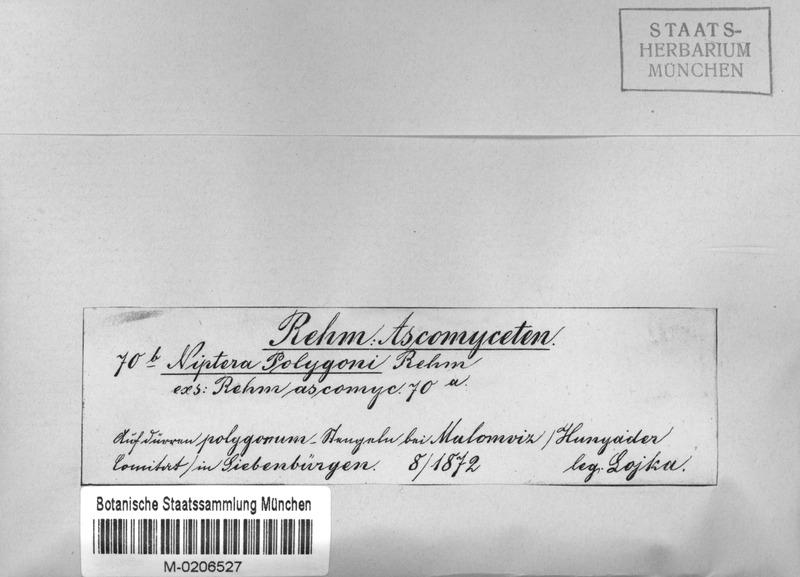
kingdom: Fungi
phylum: Ascomycota
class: Leotiomycetes
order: Helotiales
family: Mollisiaceae
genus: Mollisia
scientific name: Mollisia polygoni
